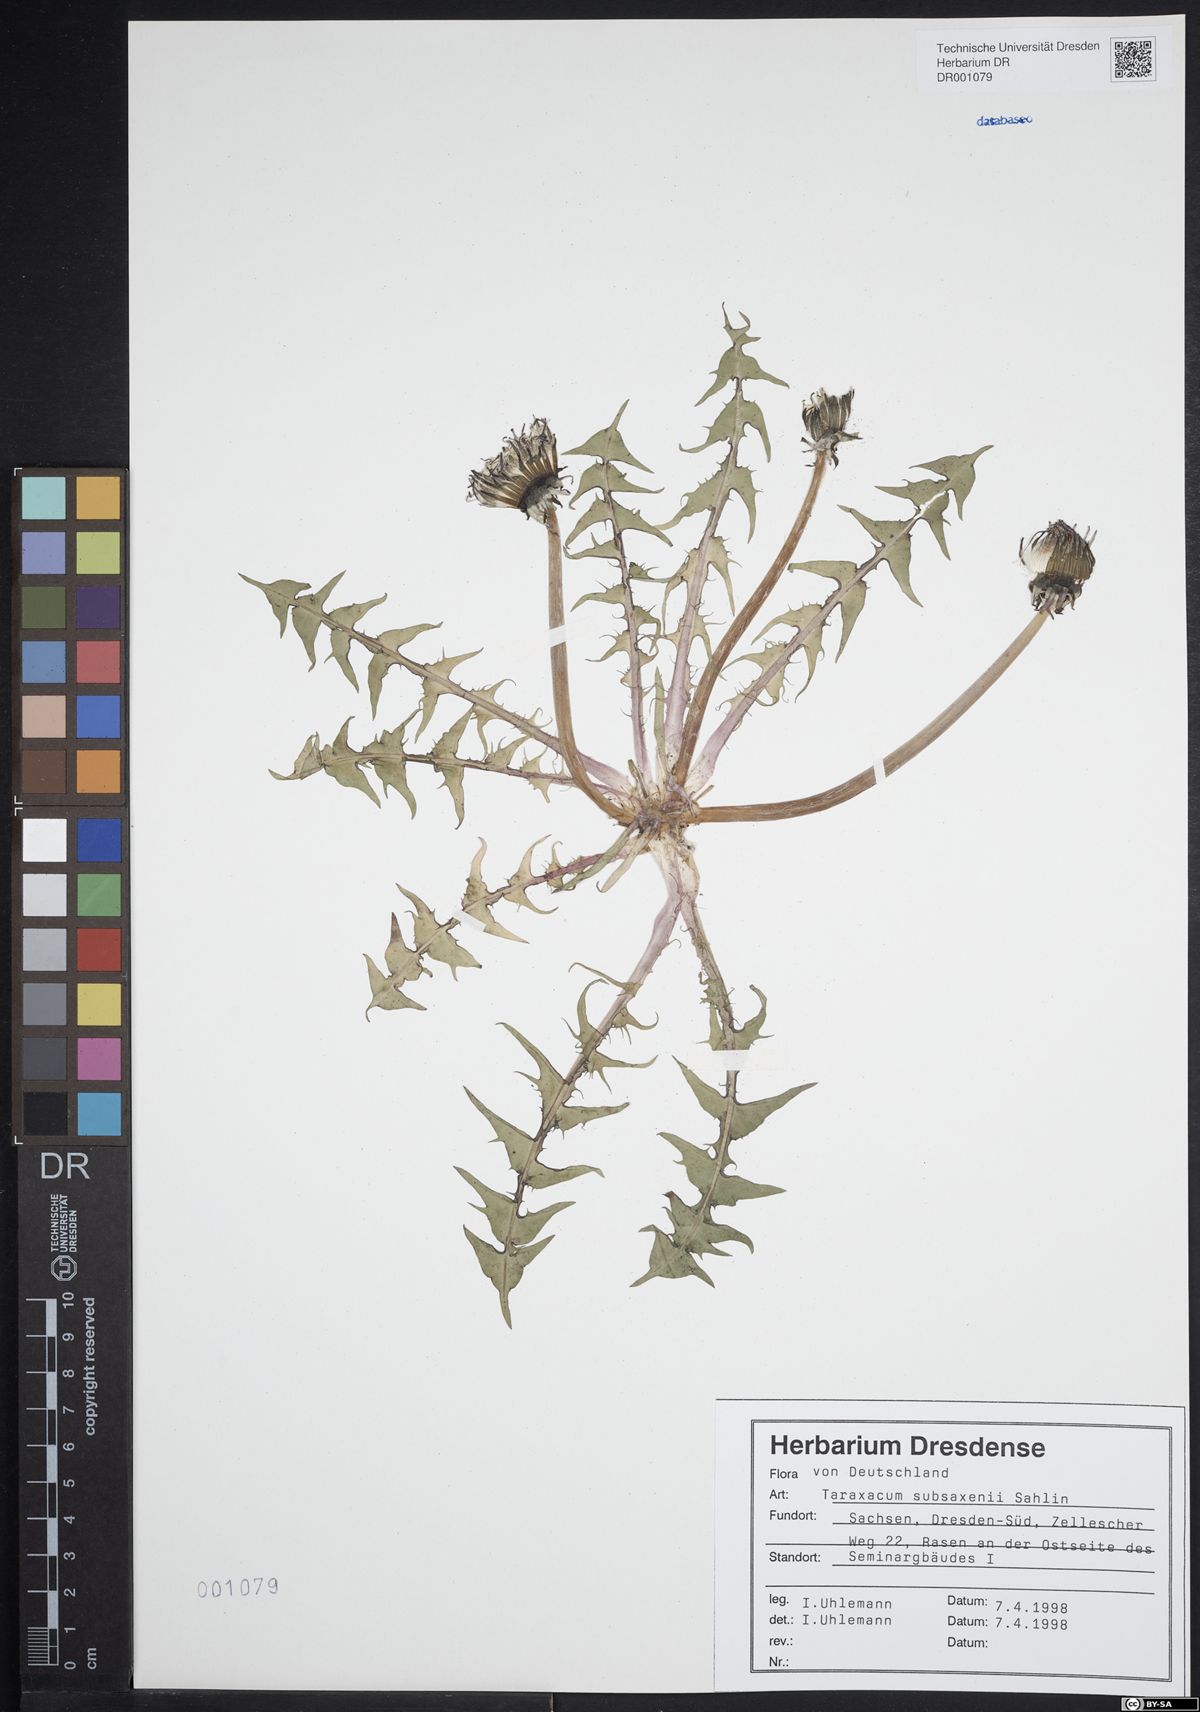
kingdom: Plantae
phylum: Tracheophyta
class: Magnoliopsida
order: Asterales
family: Asteraceae
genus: Taraxacum
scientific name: Taraxacum subsaxenii
